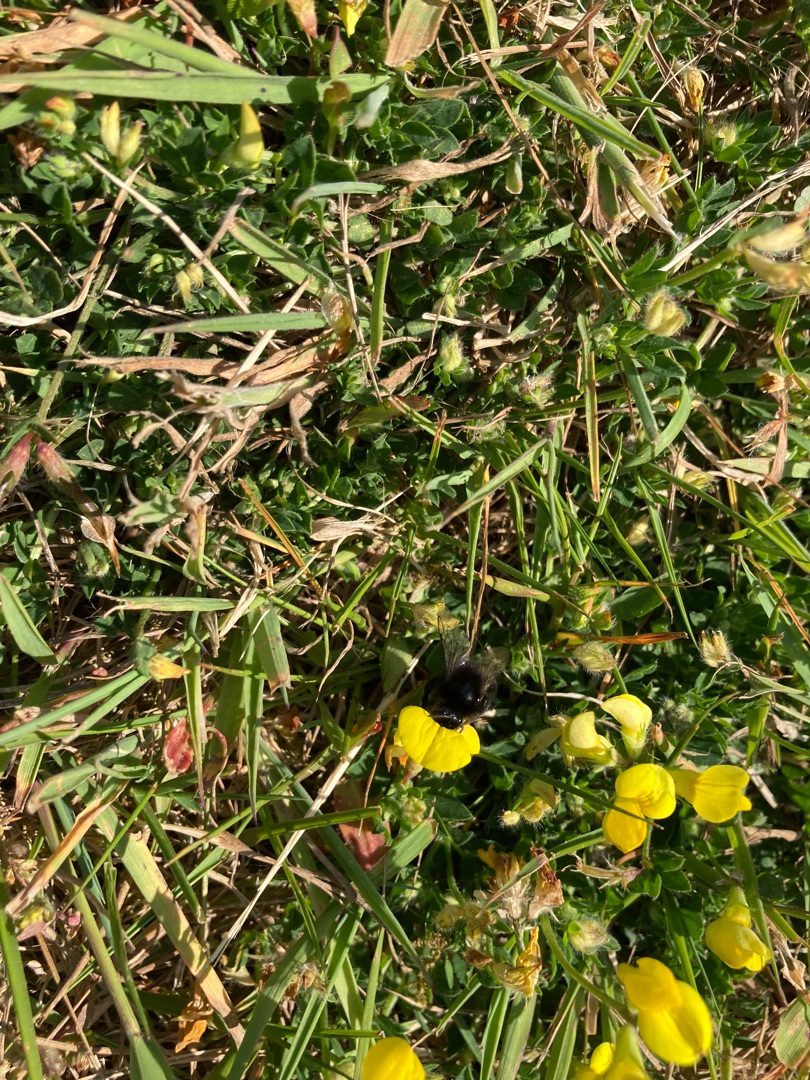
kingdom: Plantae
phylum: Tracheophyta
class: Magnoliopsida
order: Fabales
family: Fabaceae
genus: Lotus
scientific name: Lotus corniculatus
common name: Almindelig kællingetand
